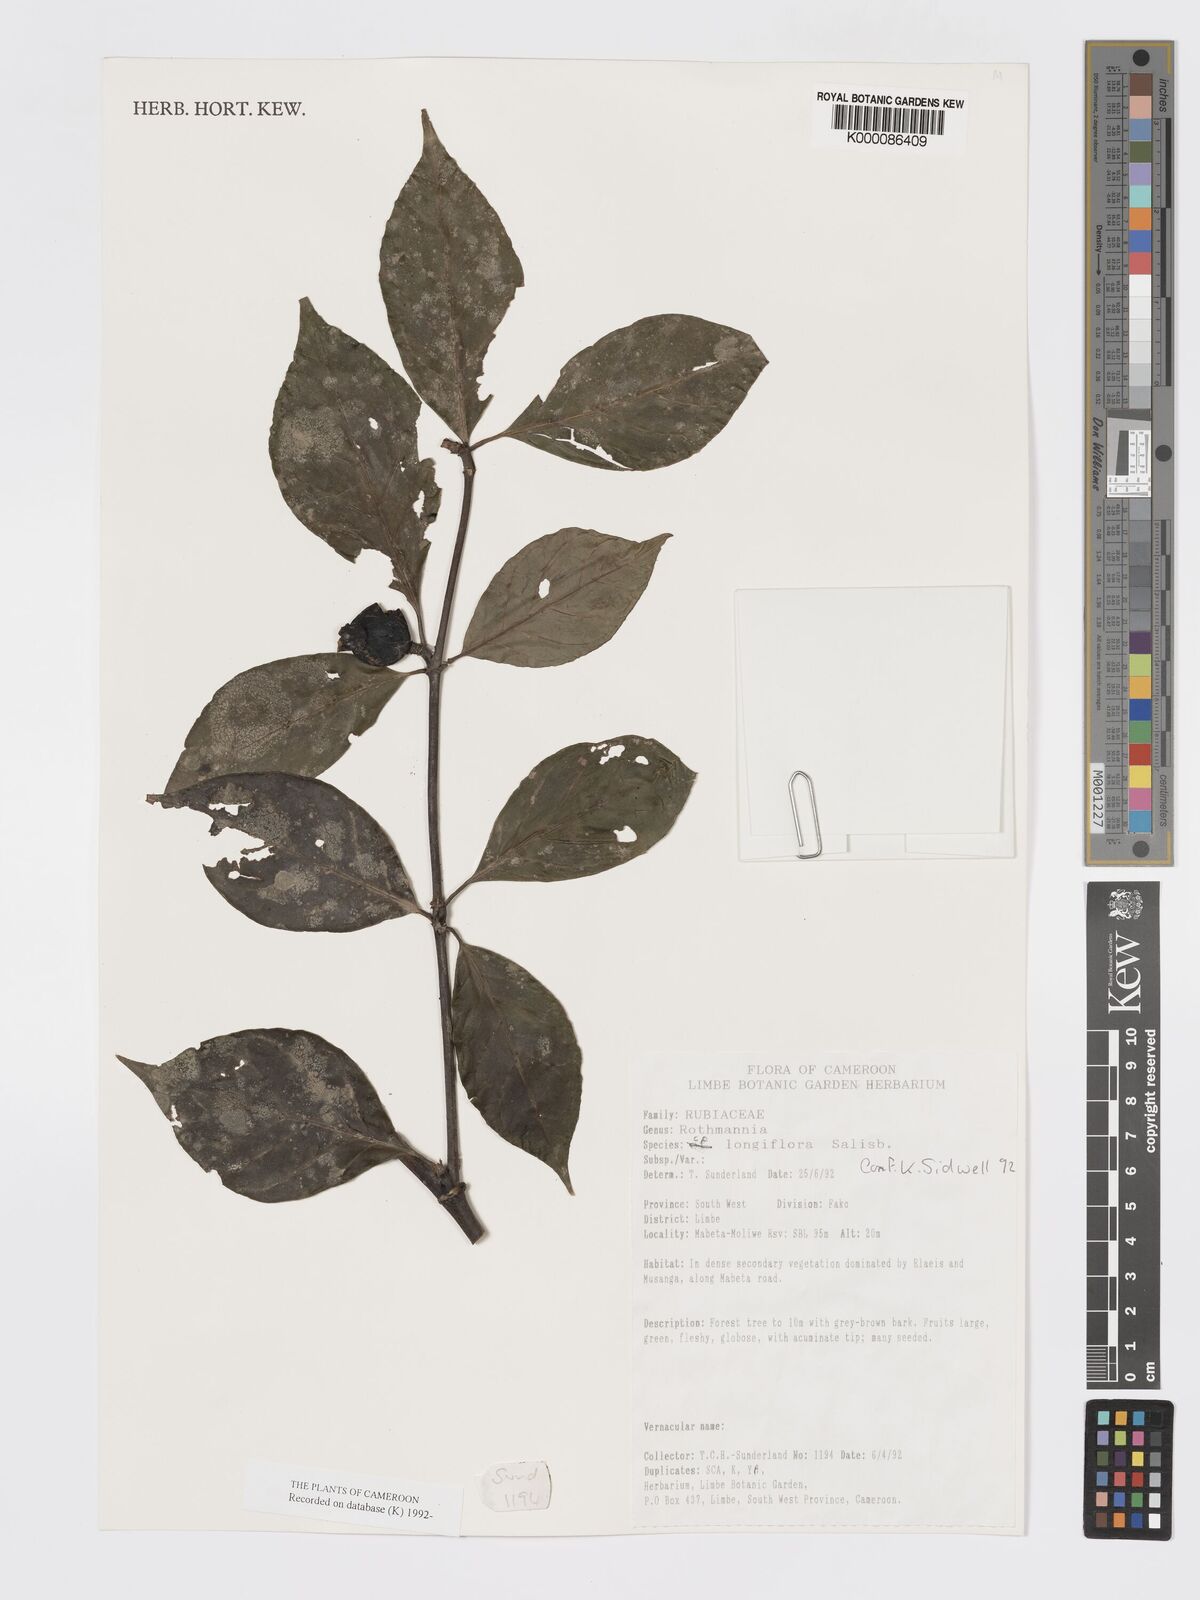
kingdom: Plantae
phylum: Tracheophyta
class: Magnoliopsida
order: Gentianales
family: Rubiaceae
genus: Rothmannia
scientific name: Rothmannia longiflora
